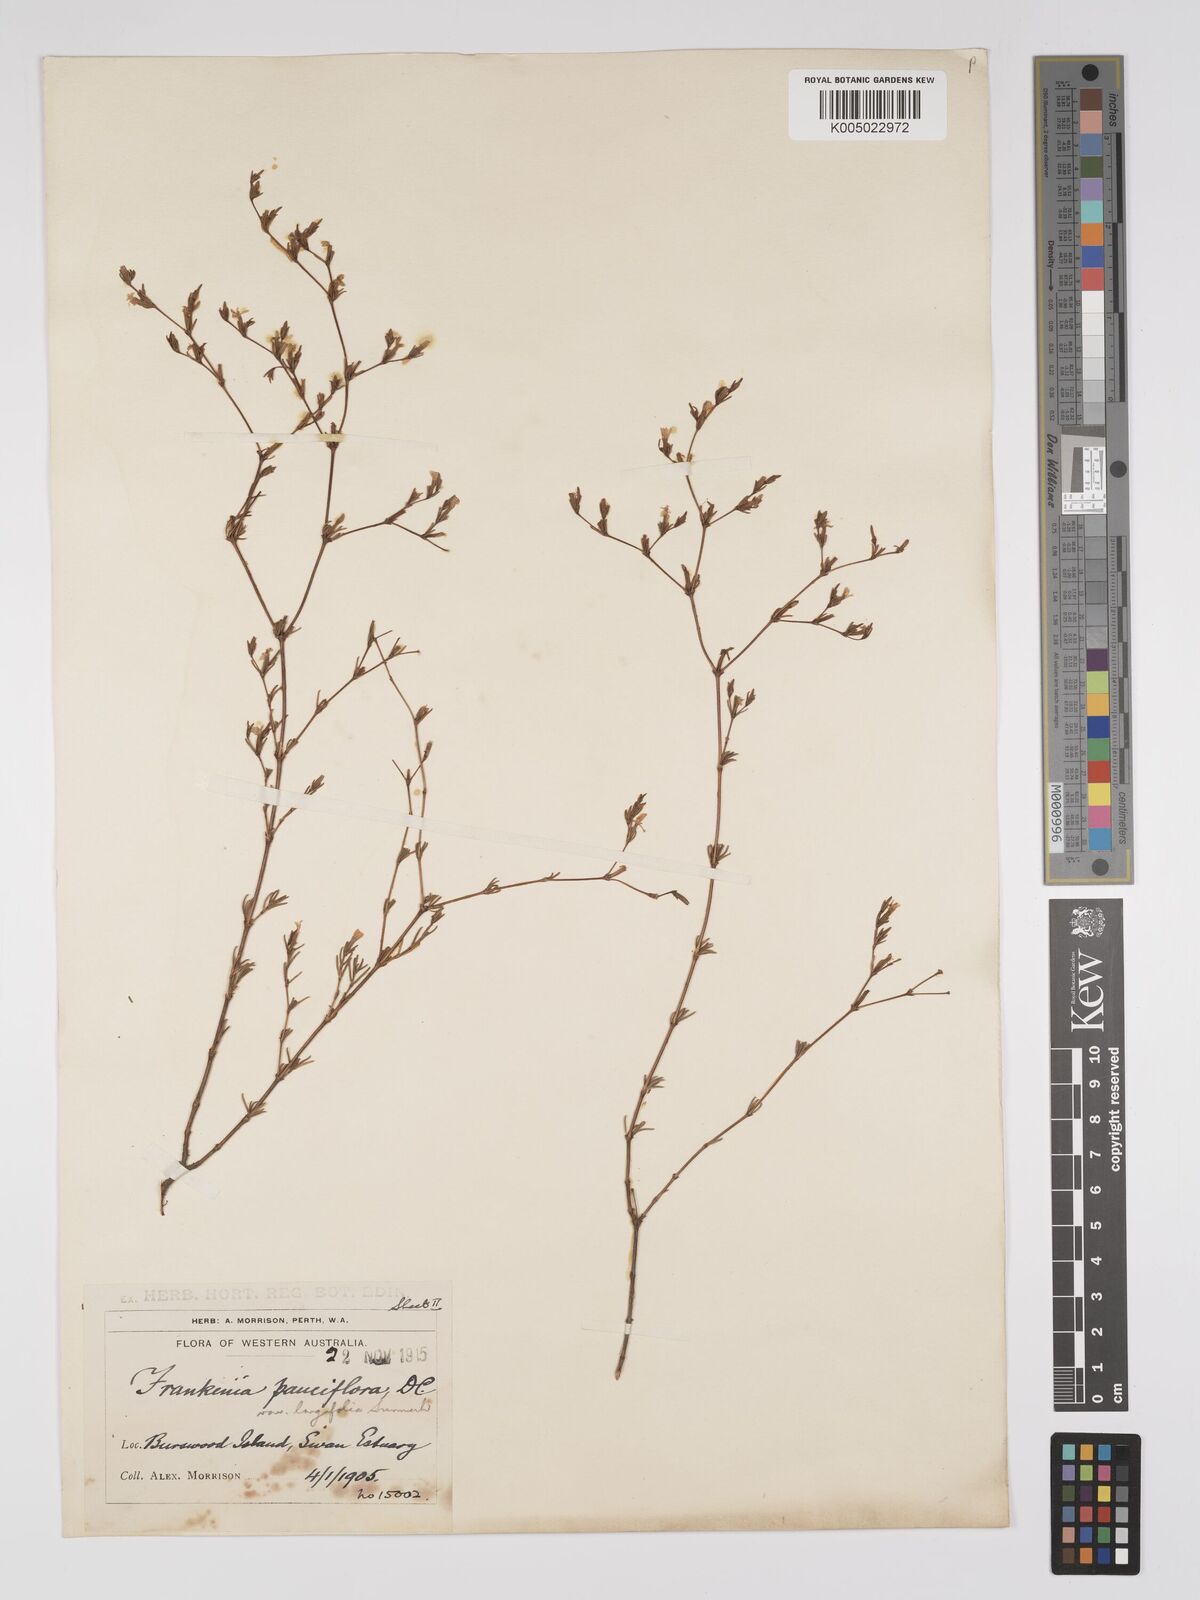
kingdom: Plantae
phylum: Tracheophyta
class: Magnoliopsida
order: Caryophyllales
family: Frankeniaceae
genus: Frankenia
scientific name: Frankenia pauciflora
